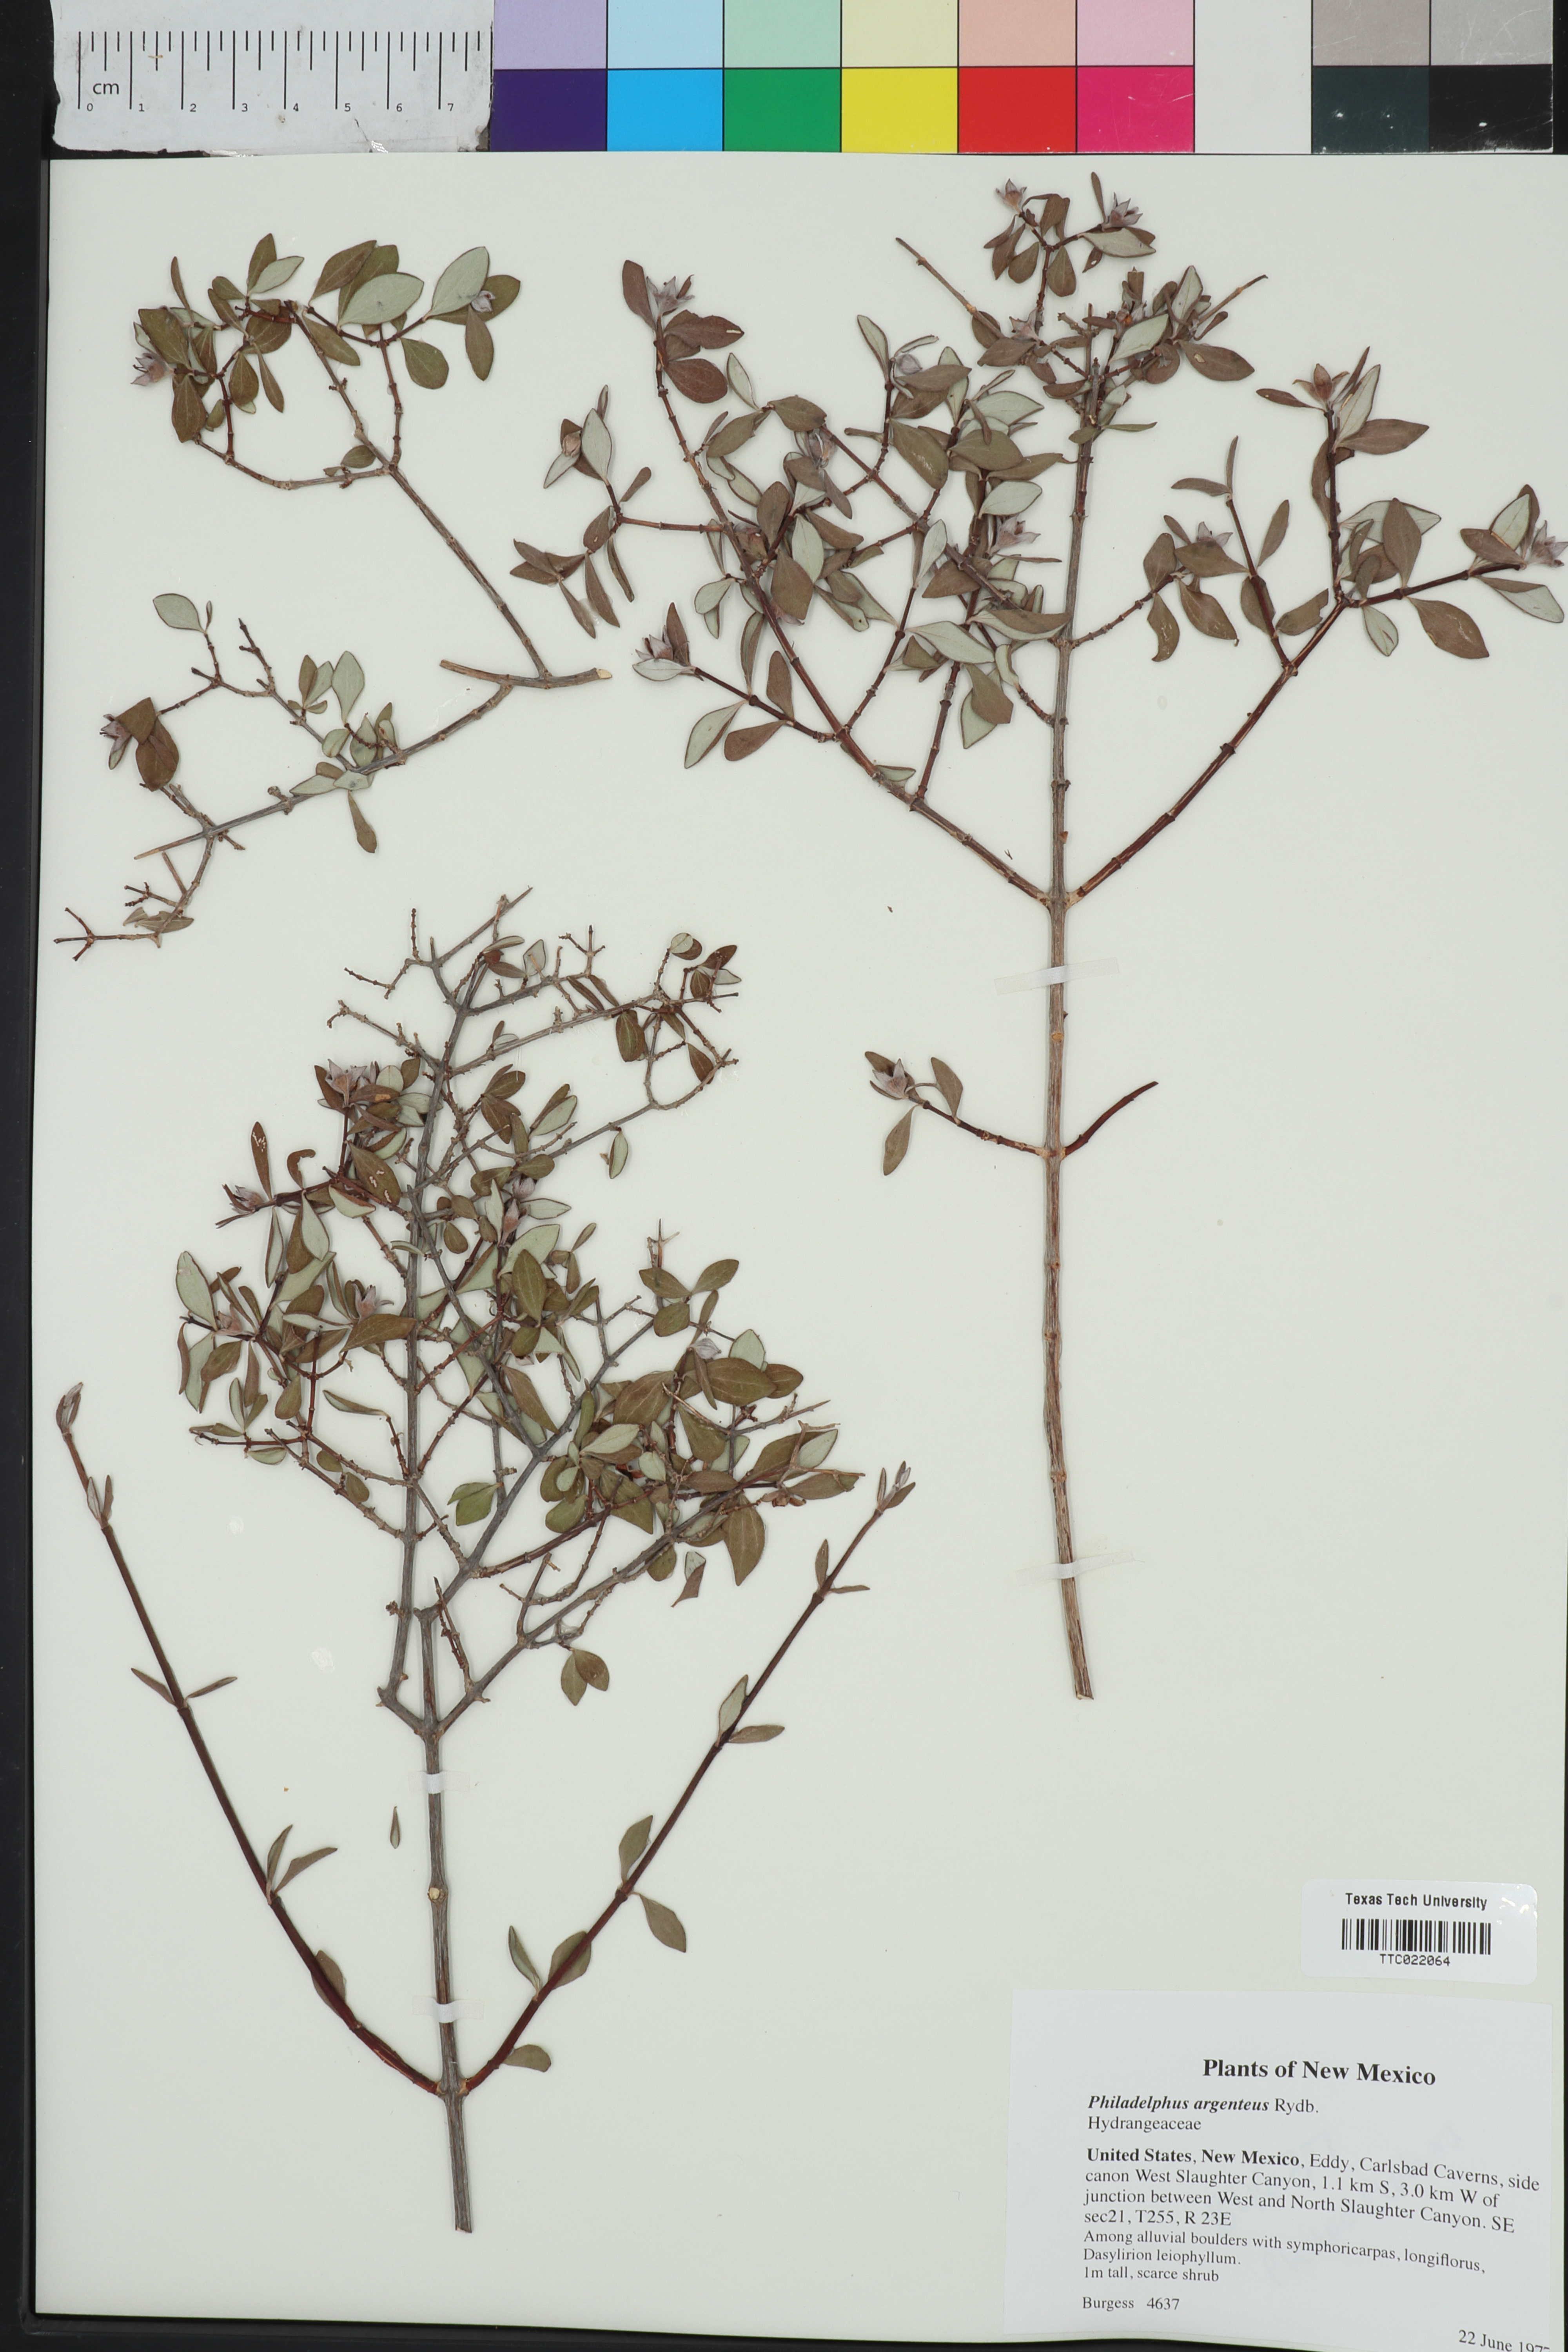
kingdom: Plantae
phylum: Tracheophyta
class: Magnoliopsida
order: Cornales
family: Hydrangeaceae
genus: Philadelphus
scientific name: Philadelphus microphyllus
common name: Desert mock orange
